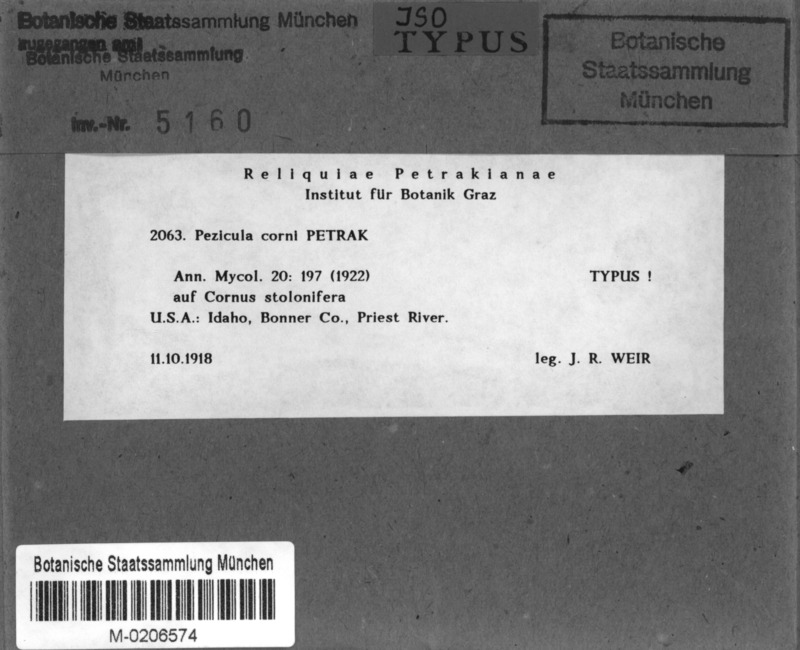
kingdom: Fungi
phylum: Ascomycota
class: Leotiomycetes
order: Helotiales
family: Dermateaceae
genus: Pezicula
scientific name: Pezicula corni
